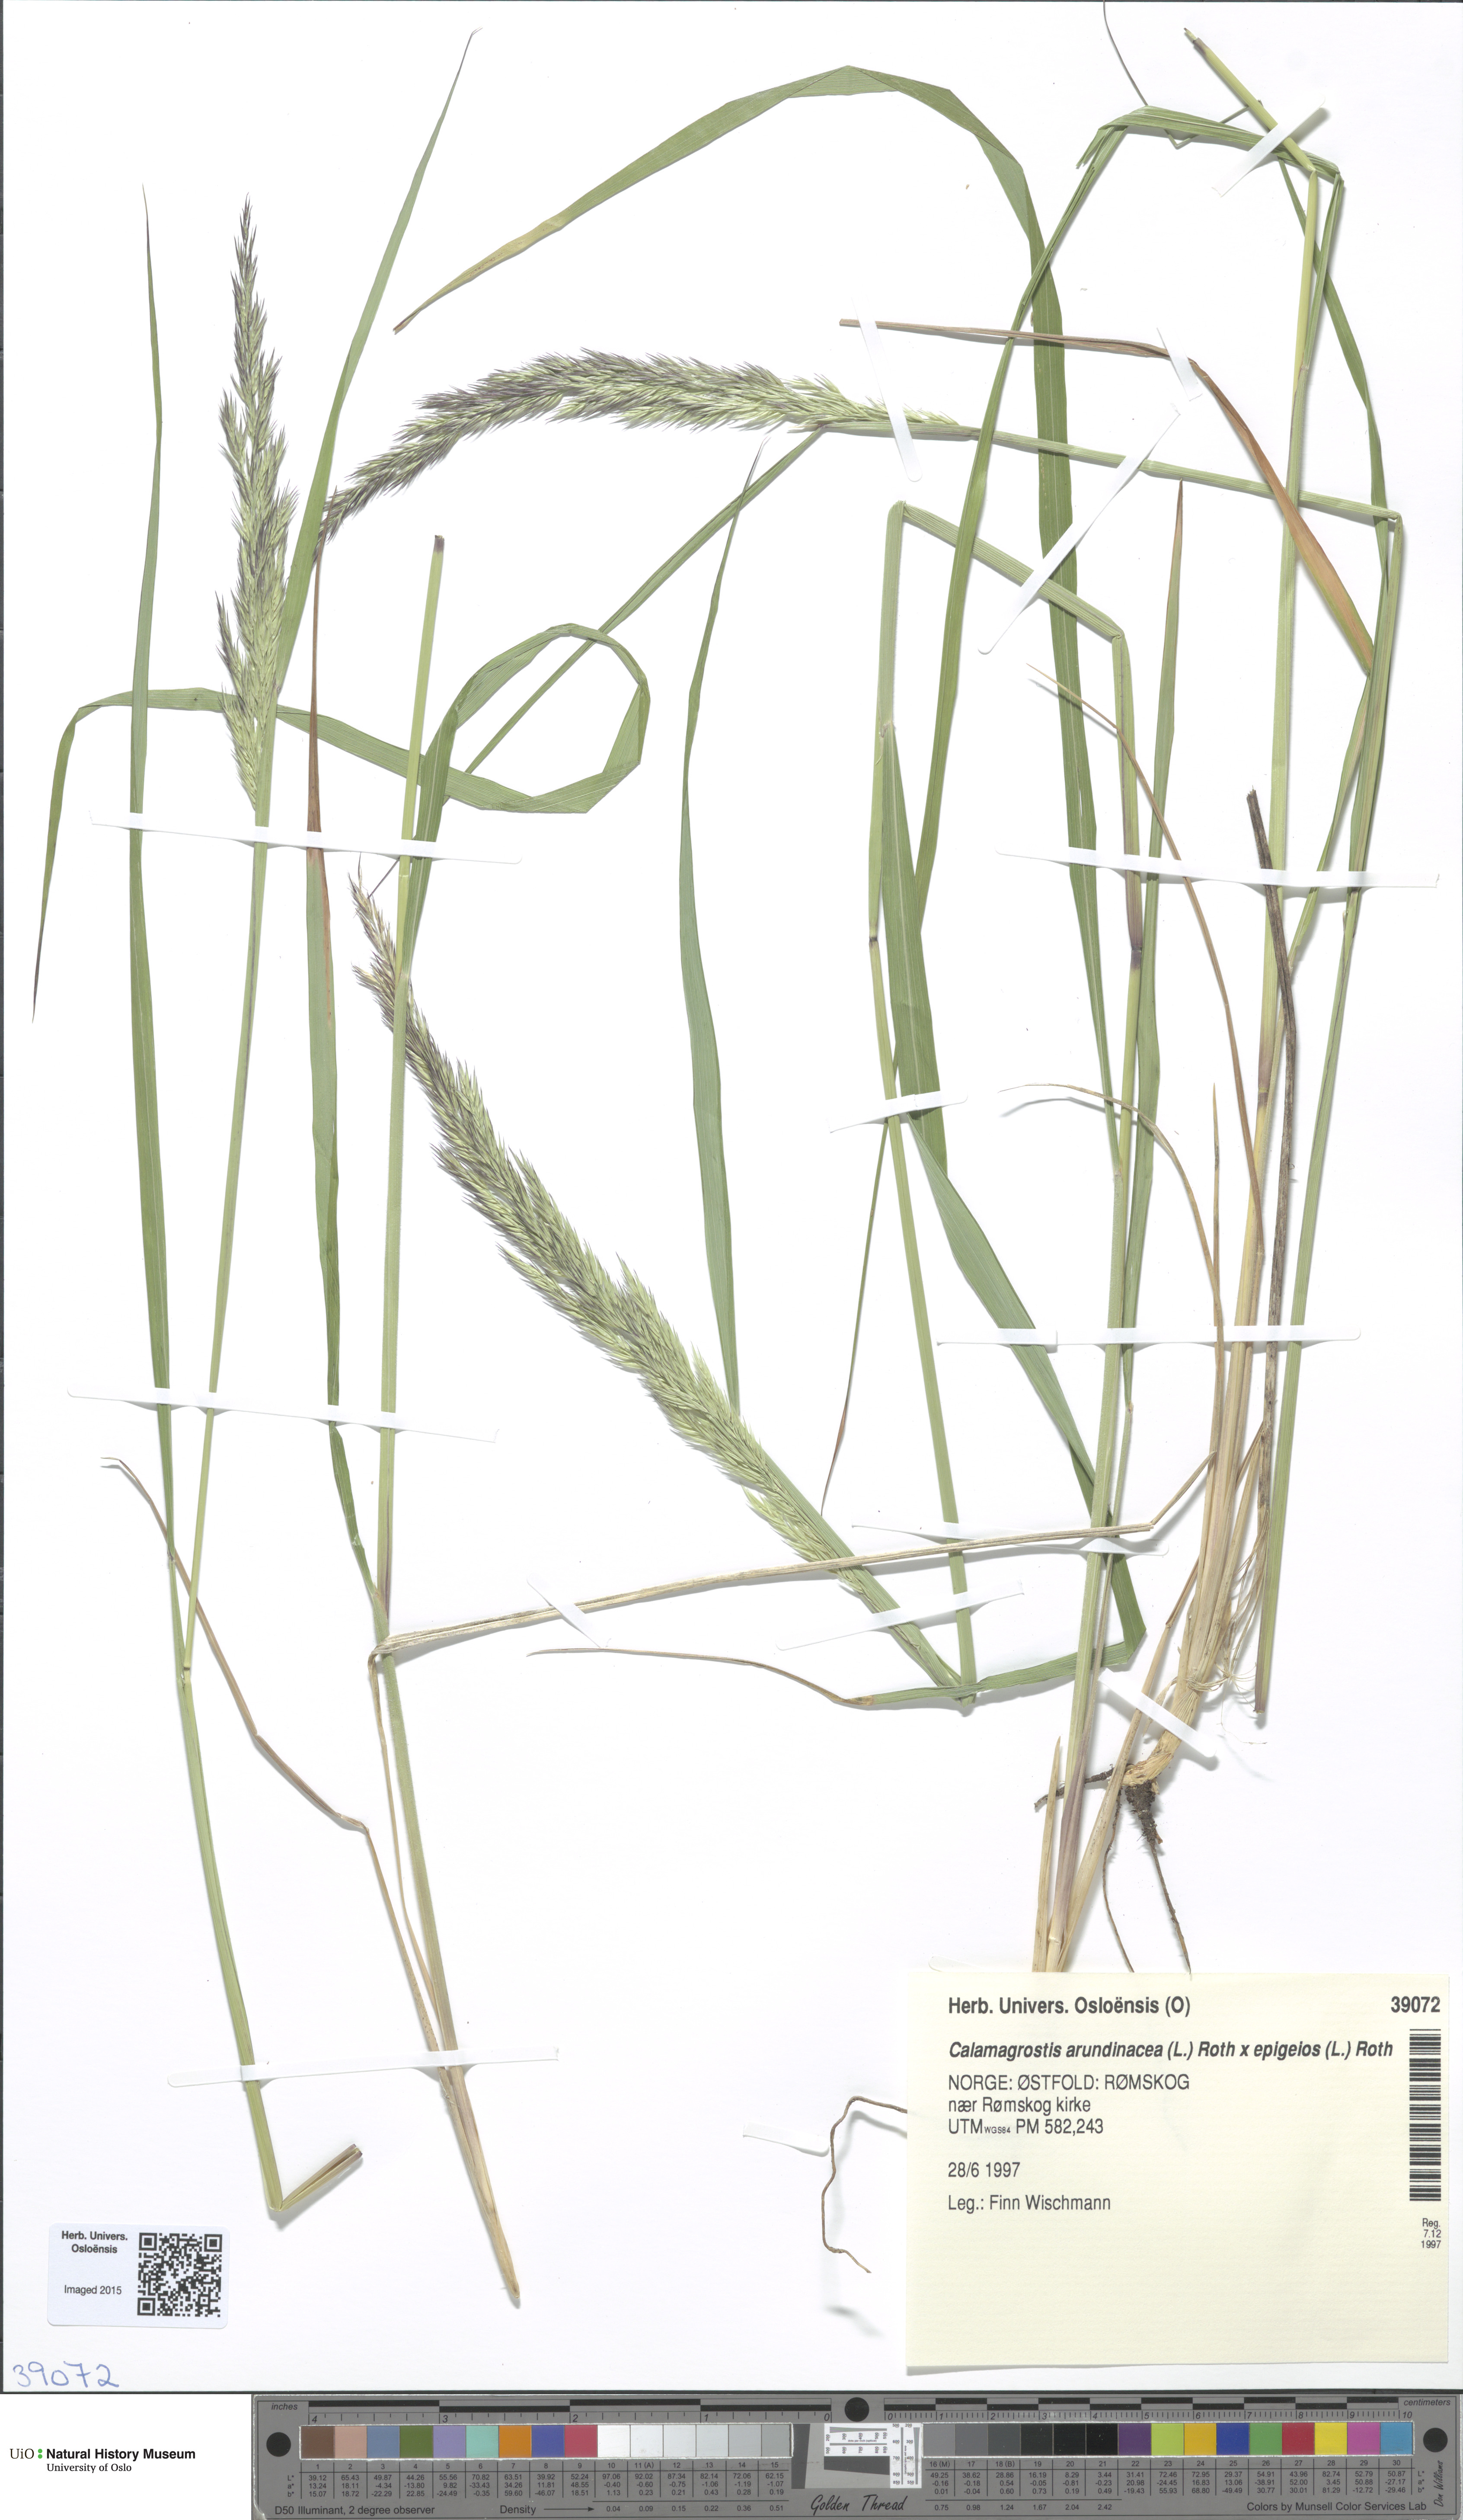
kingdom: Plantae
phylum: Tracheophyta
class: Liliopsida
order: Poales
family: Poaceae
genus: Calamagrostis
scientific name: Calamagrostis
